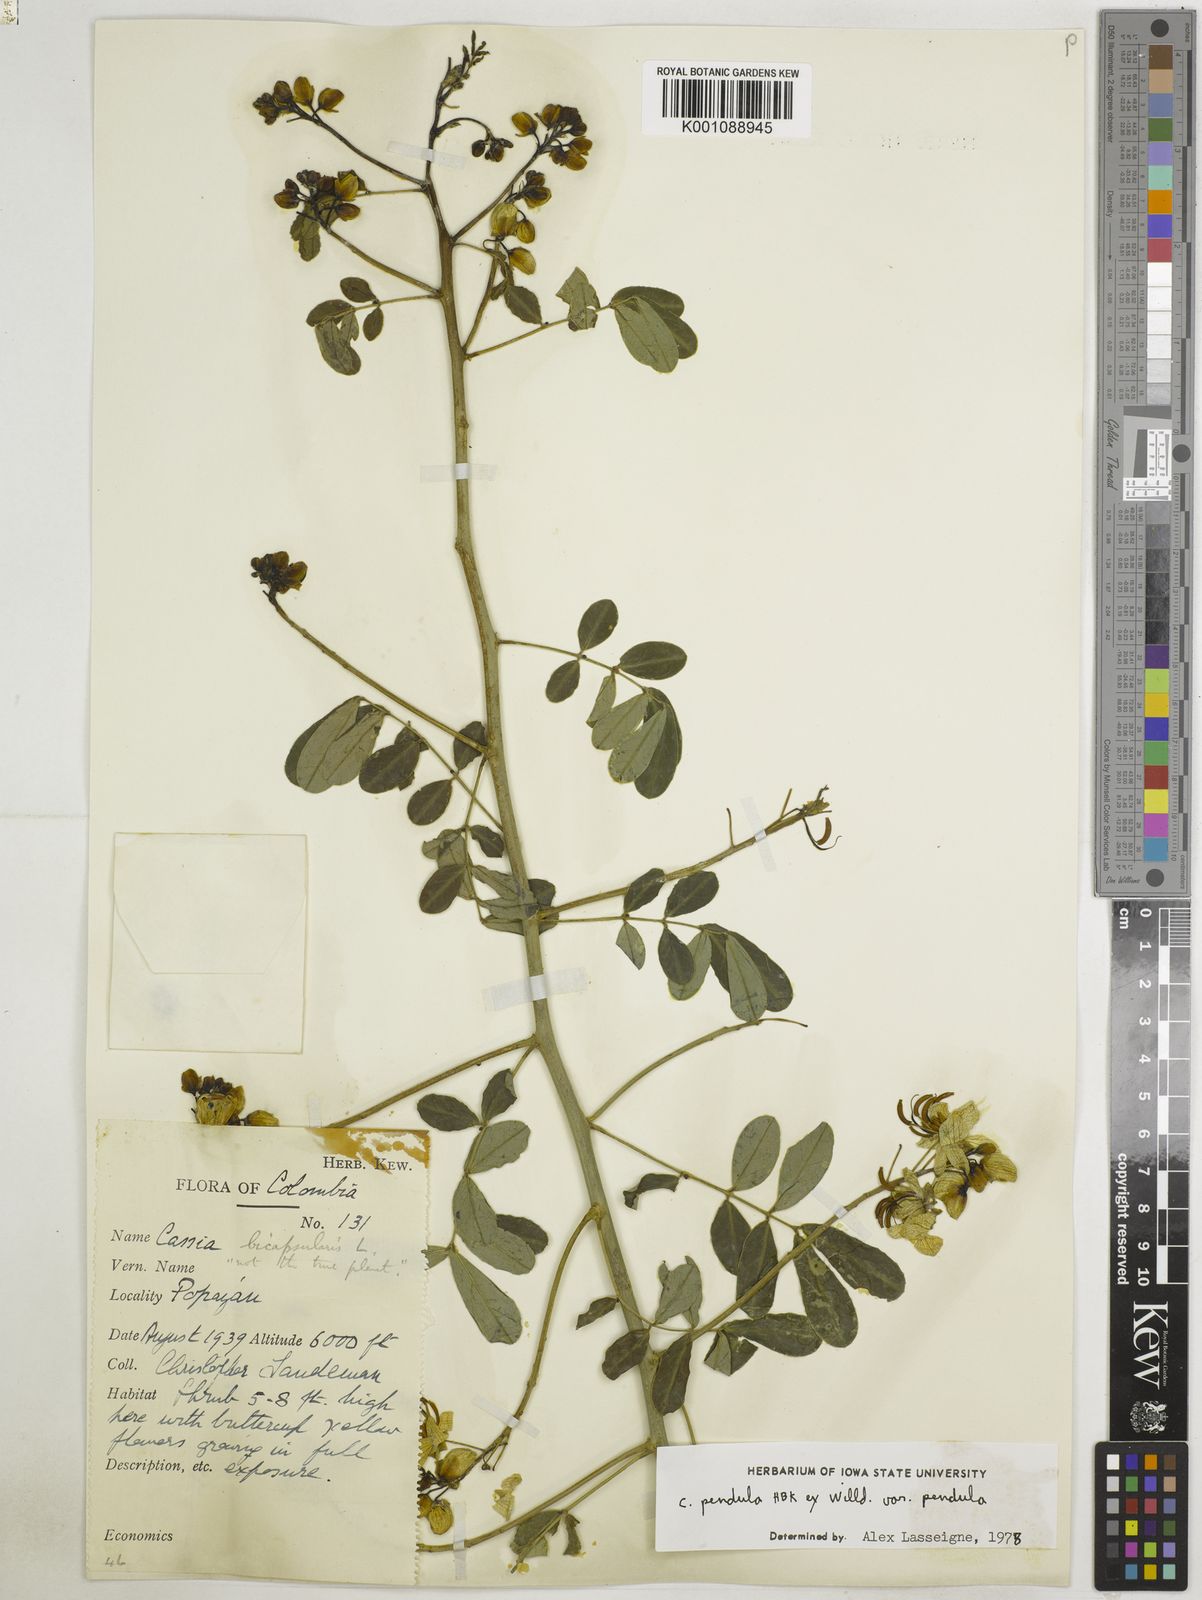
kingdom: Plantae
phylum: Tracheophyta
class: Magnoliopsida
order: Fabales
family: Fabaceae
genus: Senna
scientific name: Senna pendula
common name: Easter cassia
